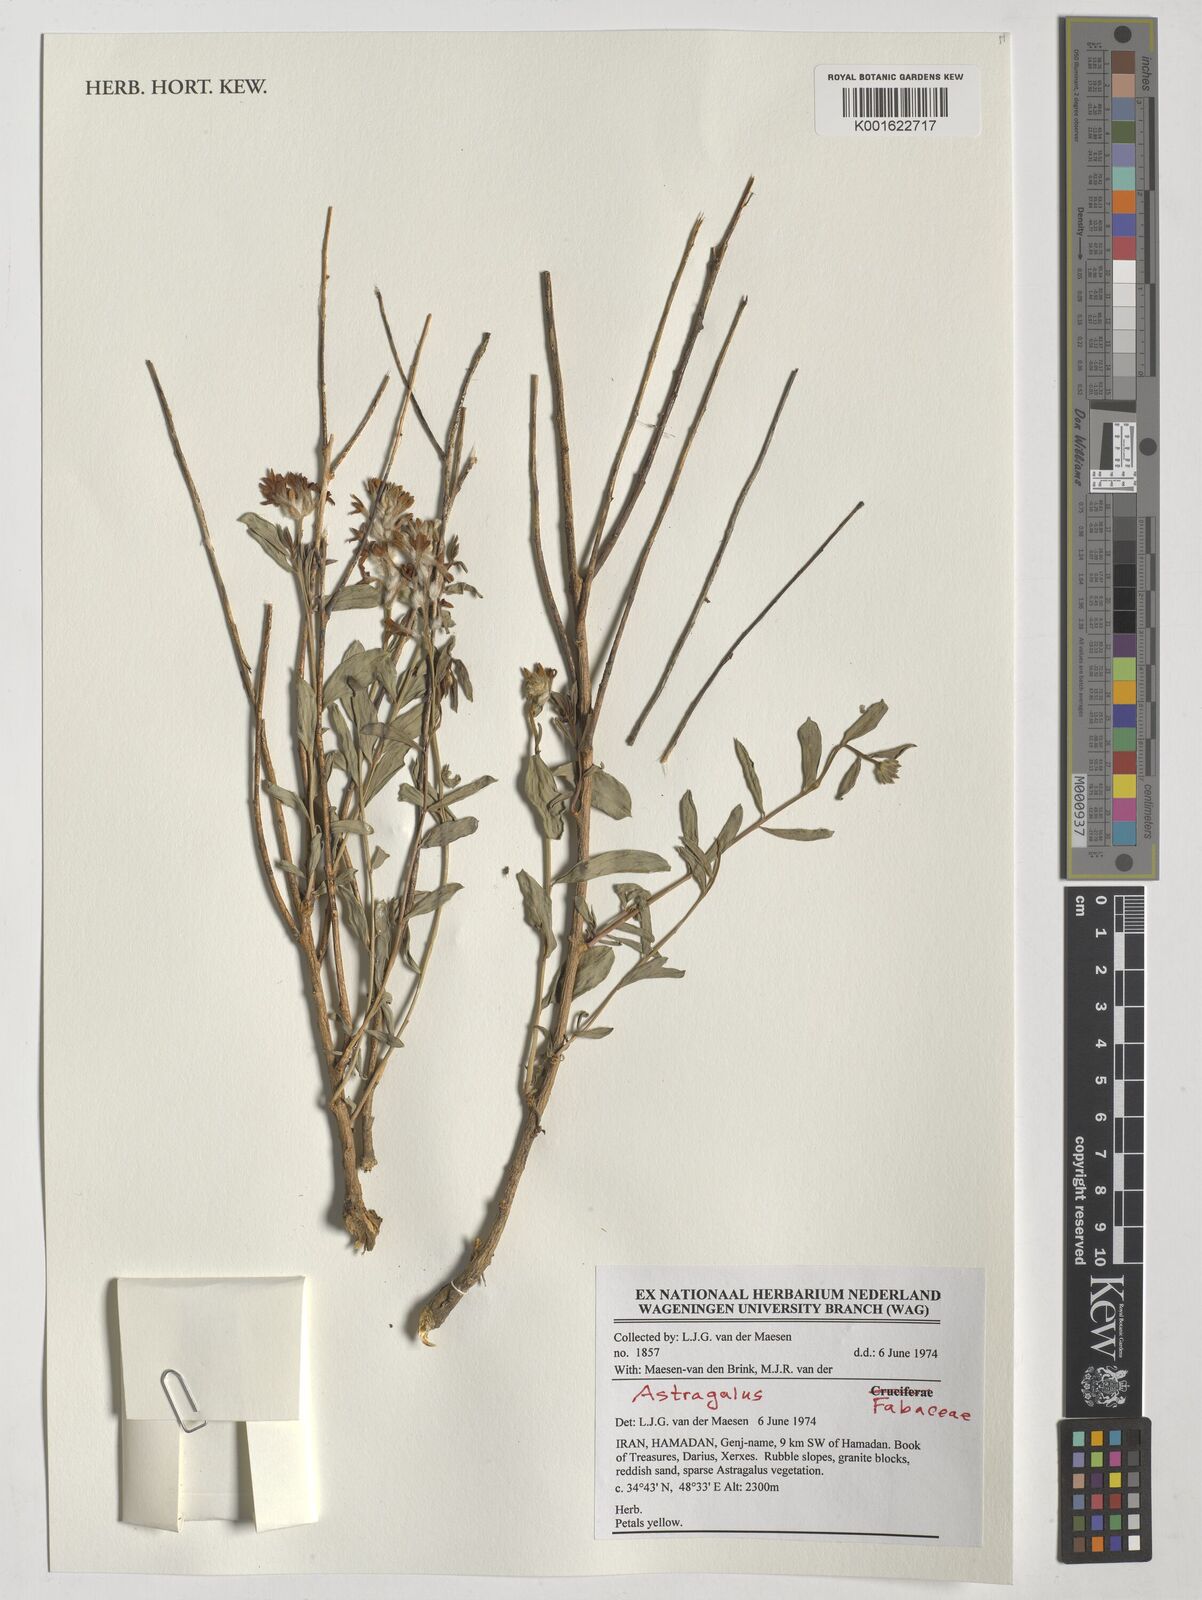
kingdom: Plantae
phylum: Tracheophyta
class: Magnoliopsida
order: Fabales
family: Fabaceae
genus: Astragalus
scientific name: Astragalus
